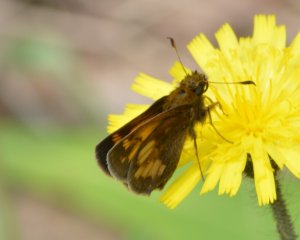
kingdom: Animalia
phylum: Arthropoda
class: Insecta
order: Lepidoptera
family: Hesperiidae
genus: Lon
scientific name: Lon hobomok
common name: Hobomok Skipper
